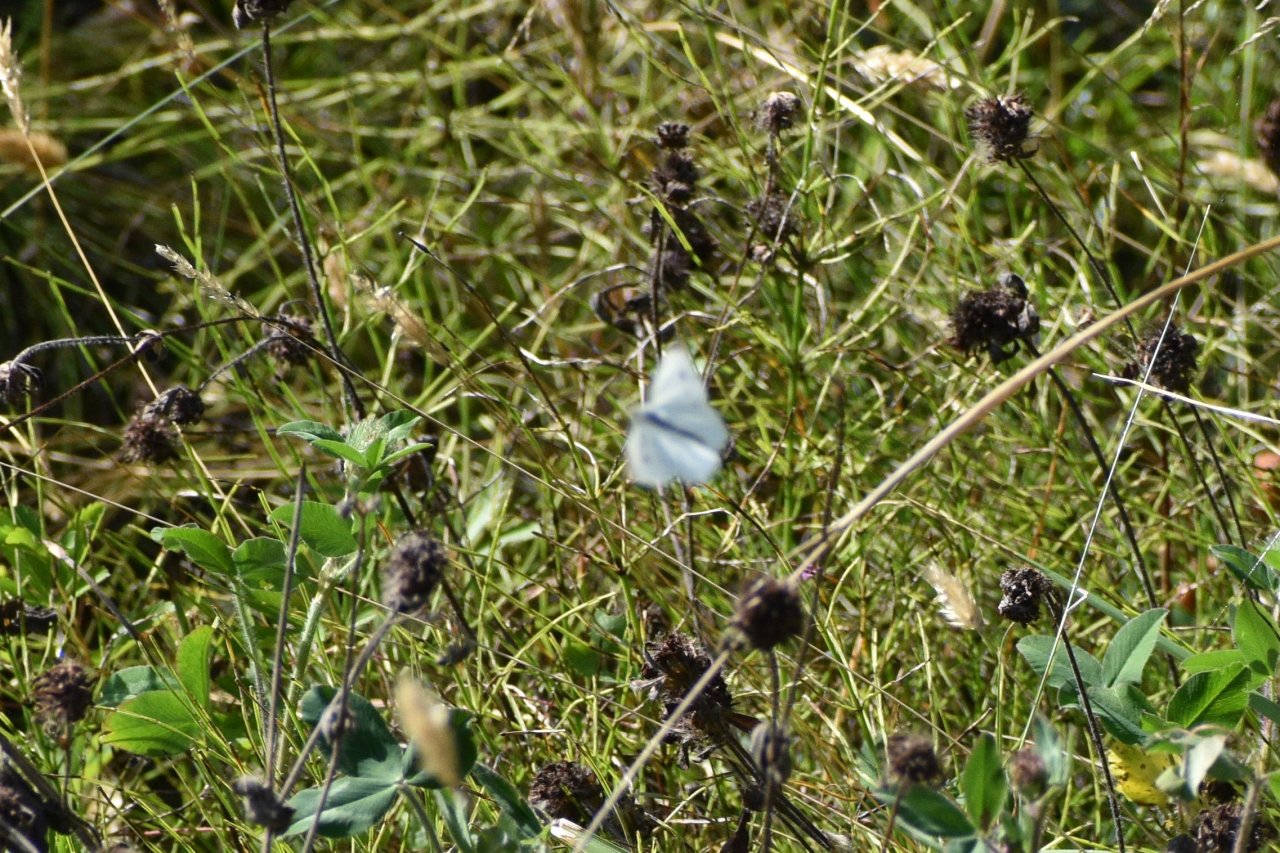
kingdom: Animalia
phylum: Arthropoda
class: Insecta
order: Lepidoptera
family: Pieridae
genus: Pieris
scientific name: Pieris rapae
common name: Cabbage White
